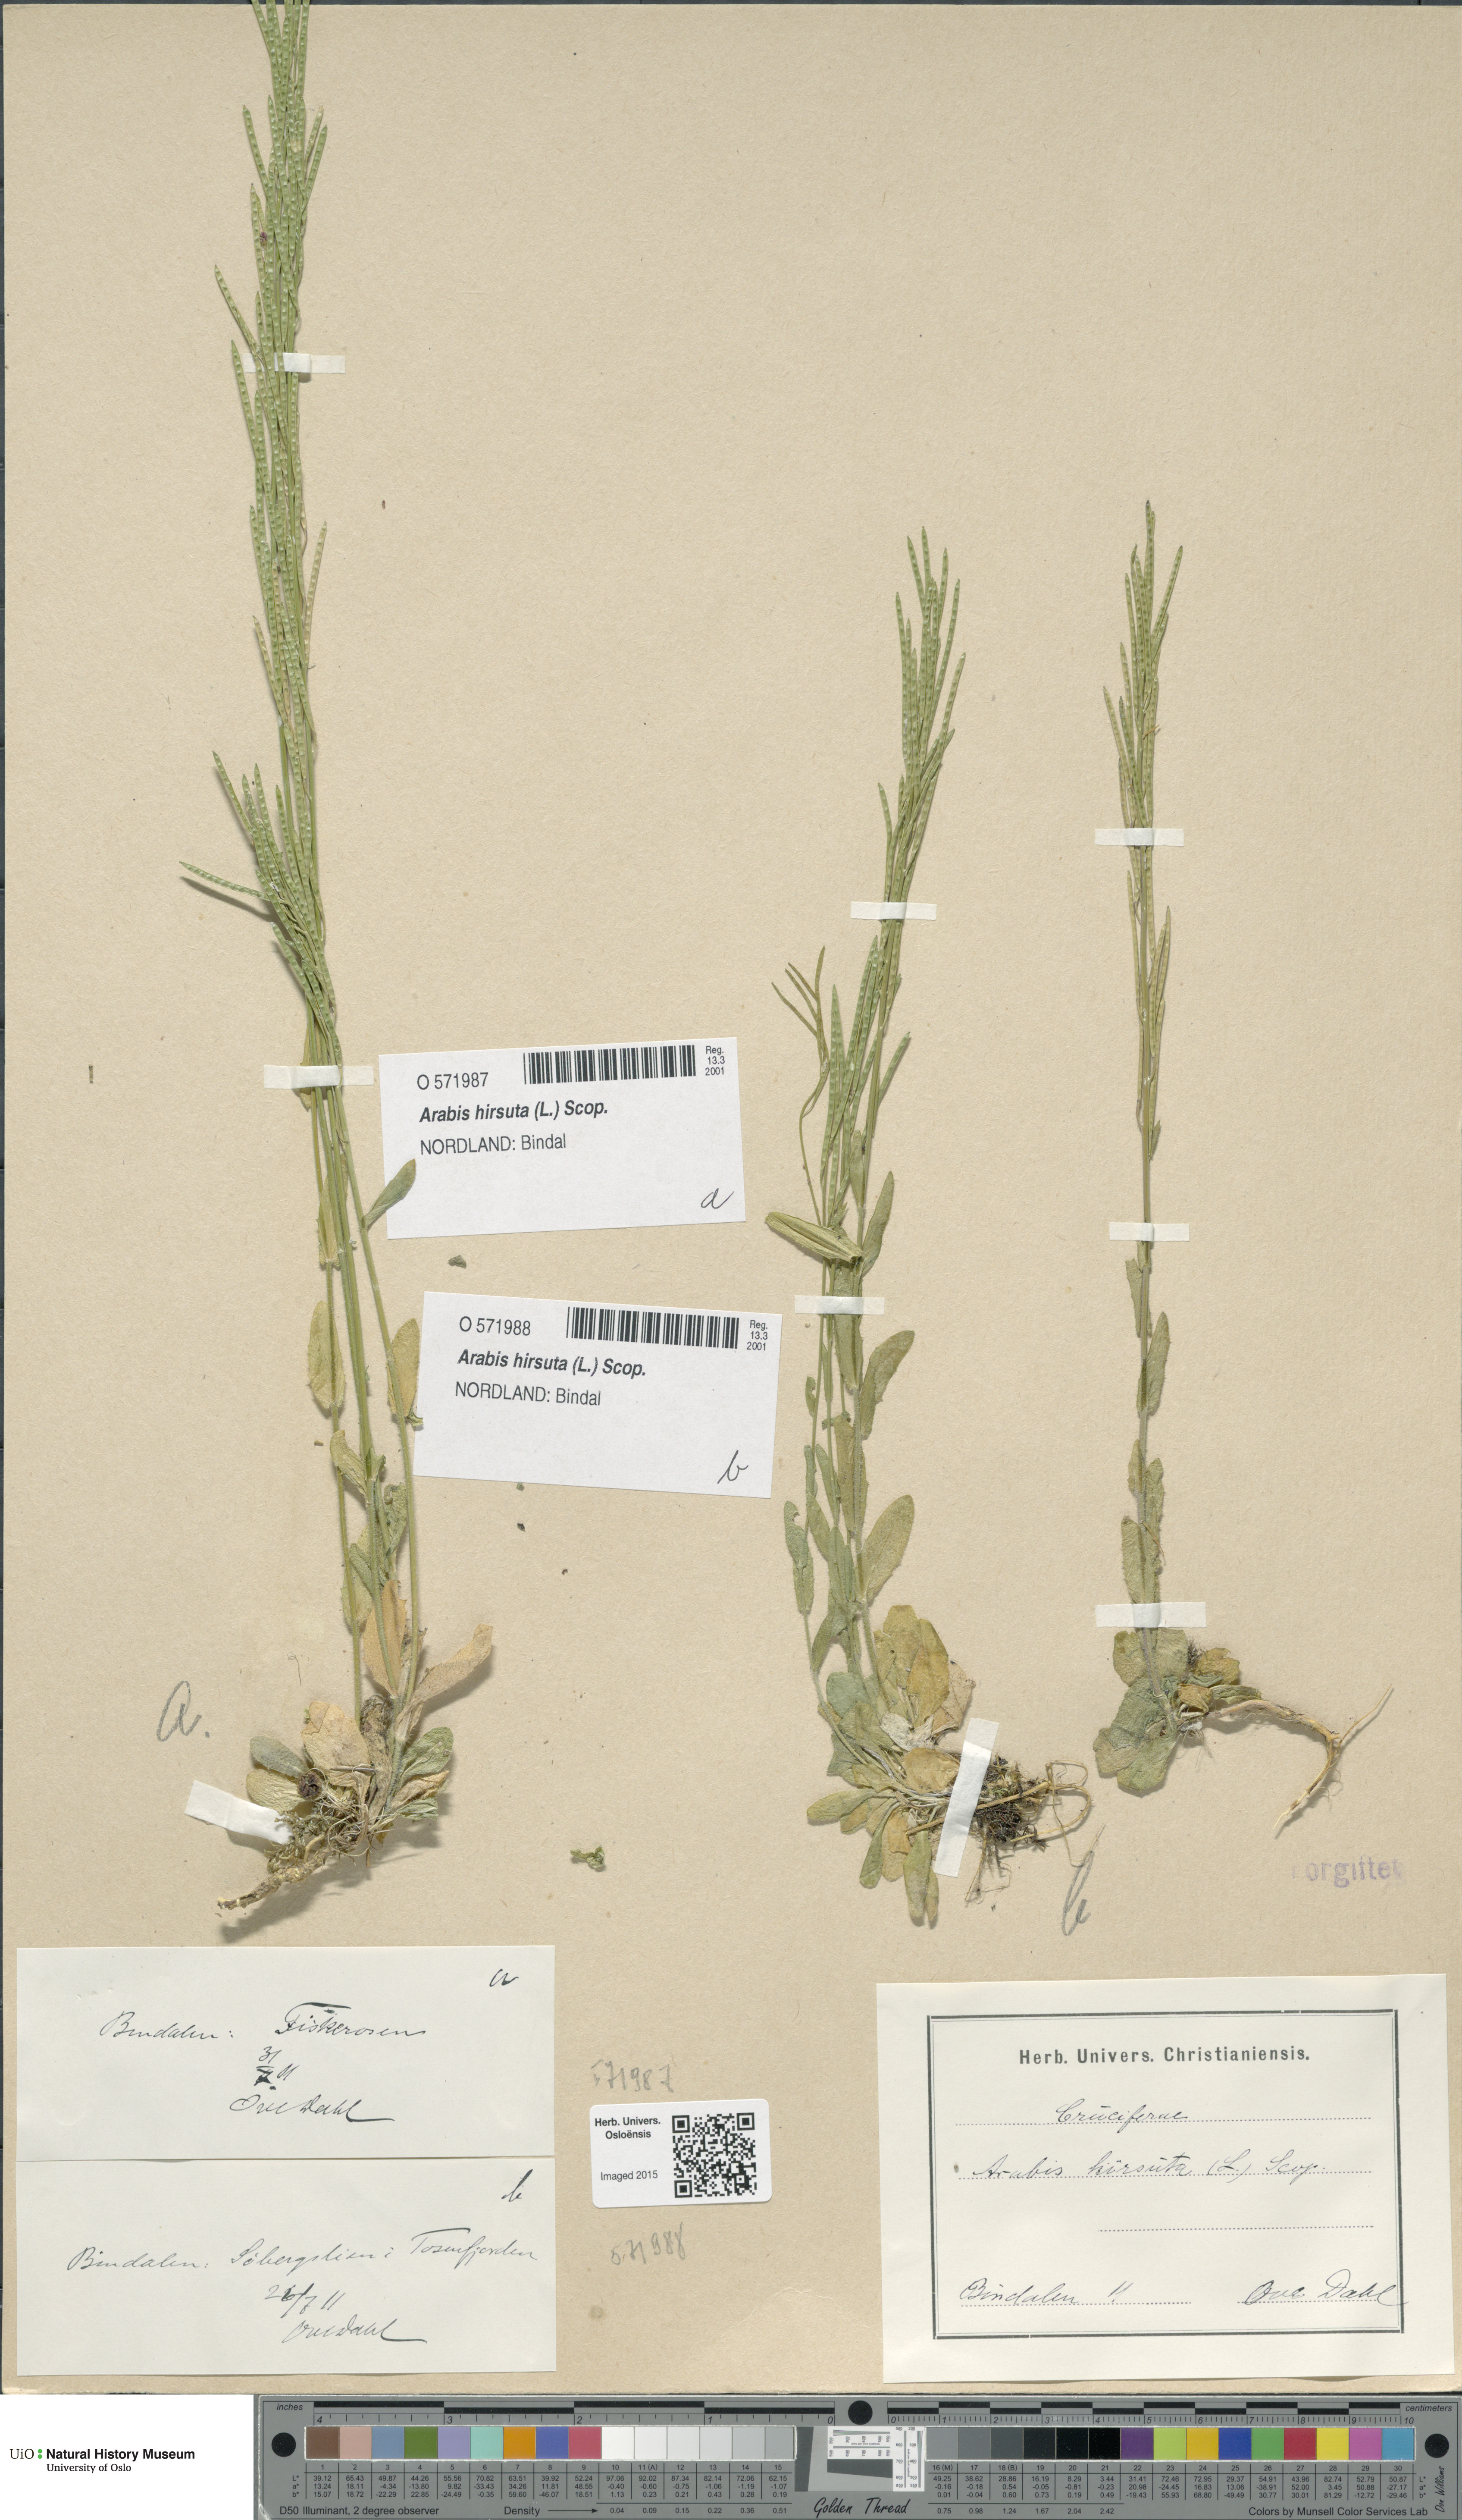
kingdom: Plantae
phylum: Tracheophyta
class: Magnoliopsida
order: Brassicales
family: Brassicaceae
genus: Arabis
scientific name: Arabis hirsuta
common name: Hairy rock-cress
